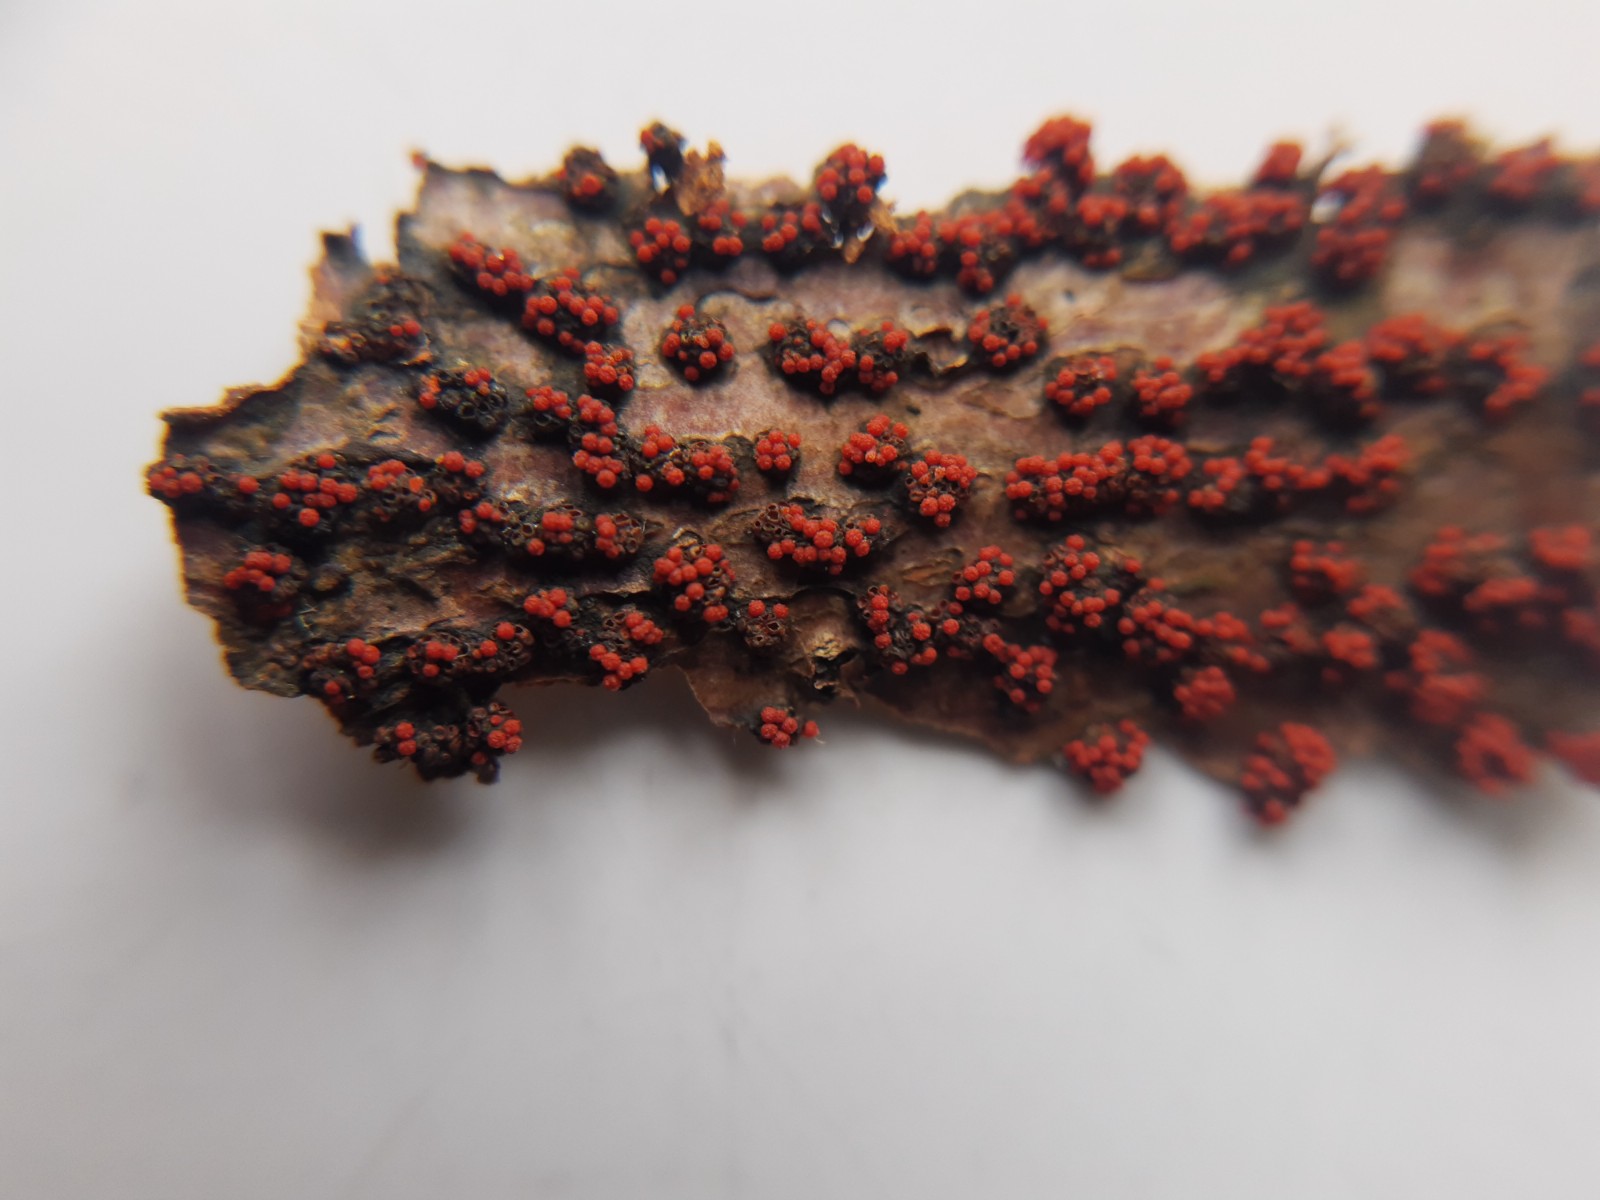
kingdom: Fungi
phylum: Ascomycota
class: Sordariomycetes
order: Hypocreales
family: Nectriaceae
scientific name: Nectriaceae
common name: cinnobersvampfamilien
